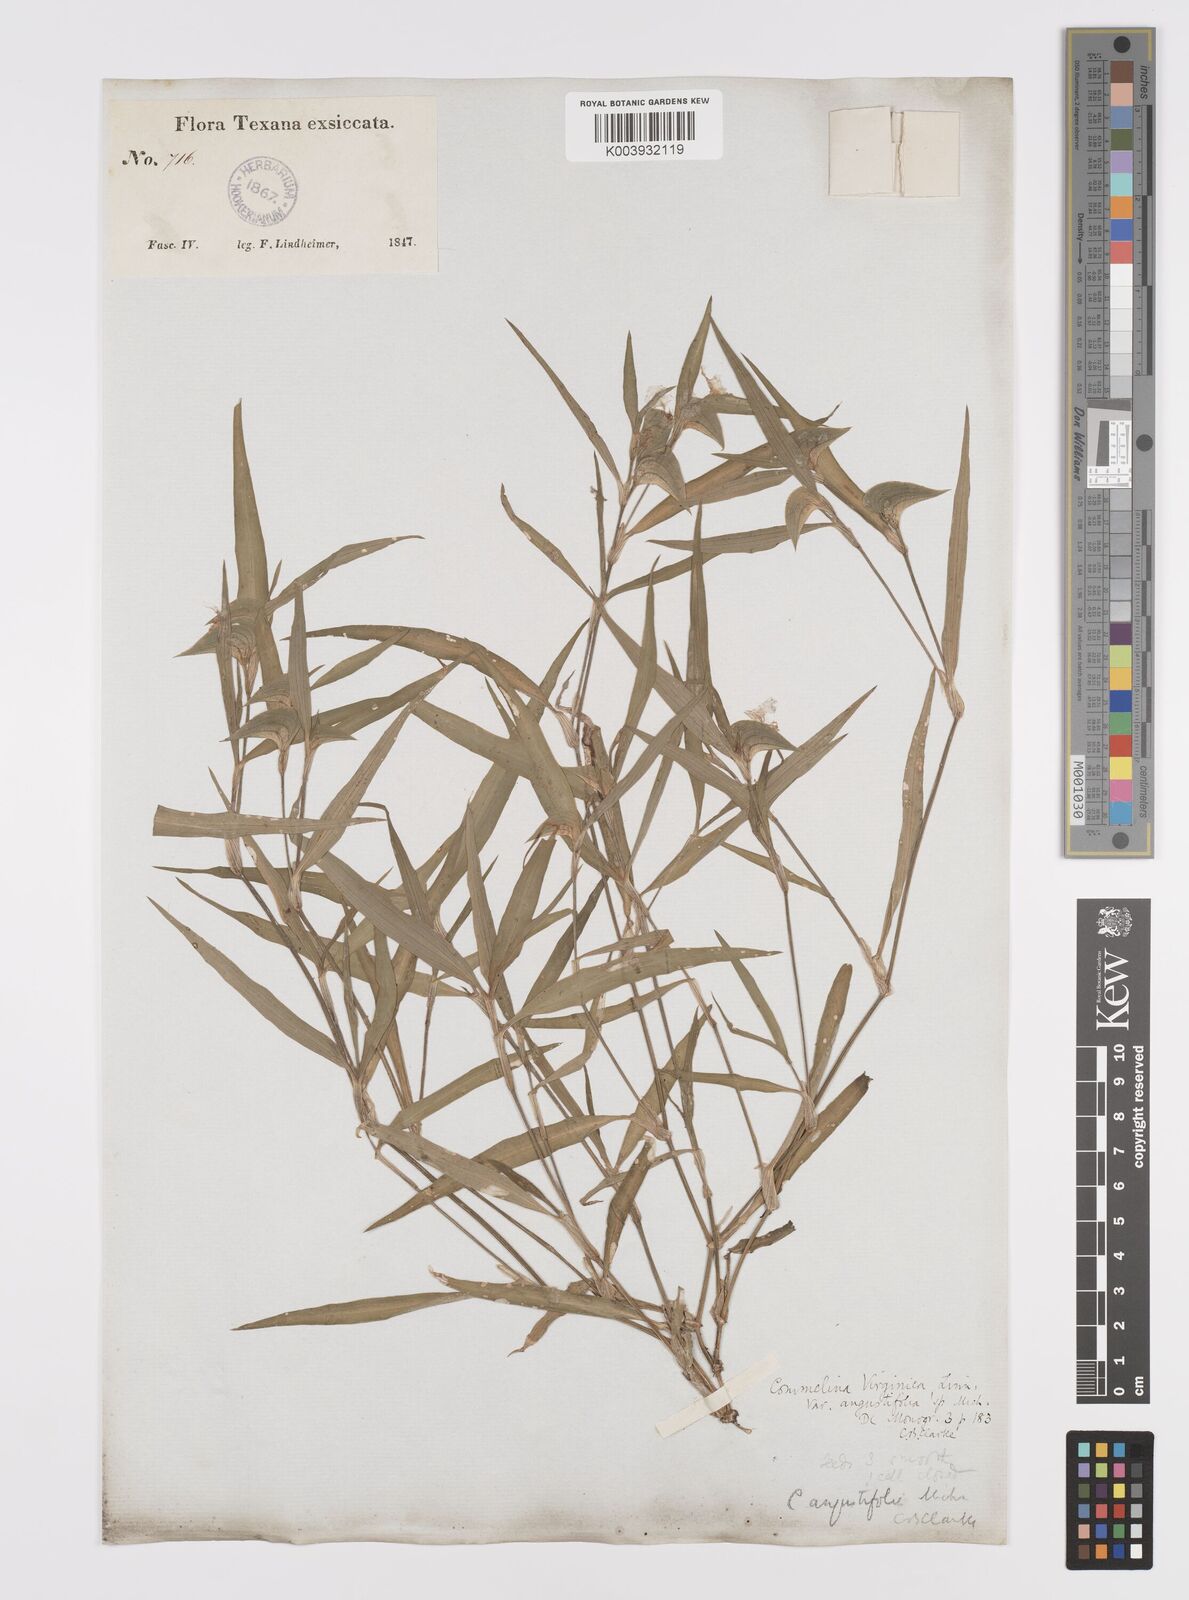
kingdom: Plantae
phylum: Tracheophyta
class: Liliopsida
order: Commelinales
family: Commelinaceae
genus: Commelina
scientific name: Commelina erecta
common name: Blousel blommetjie
